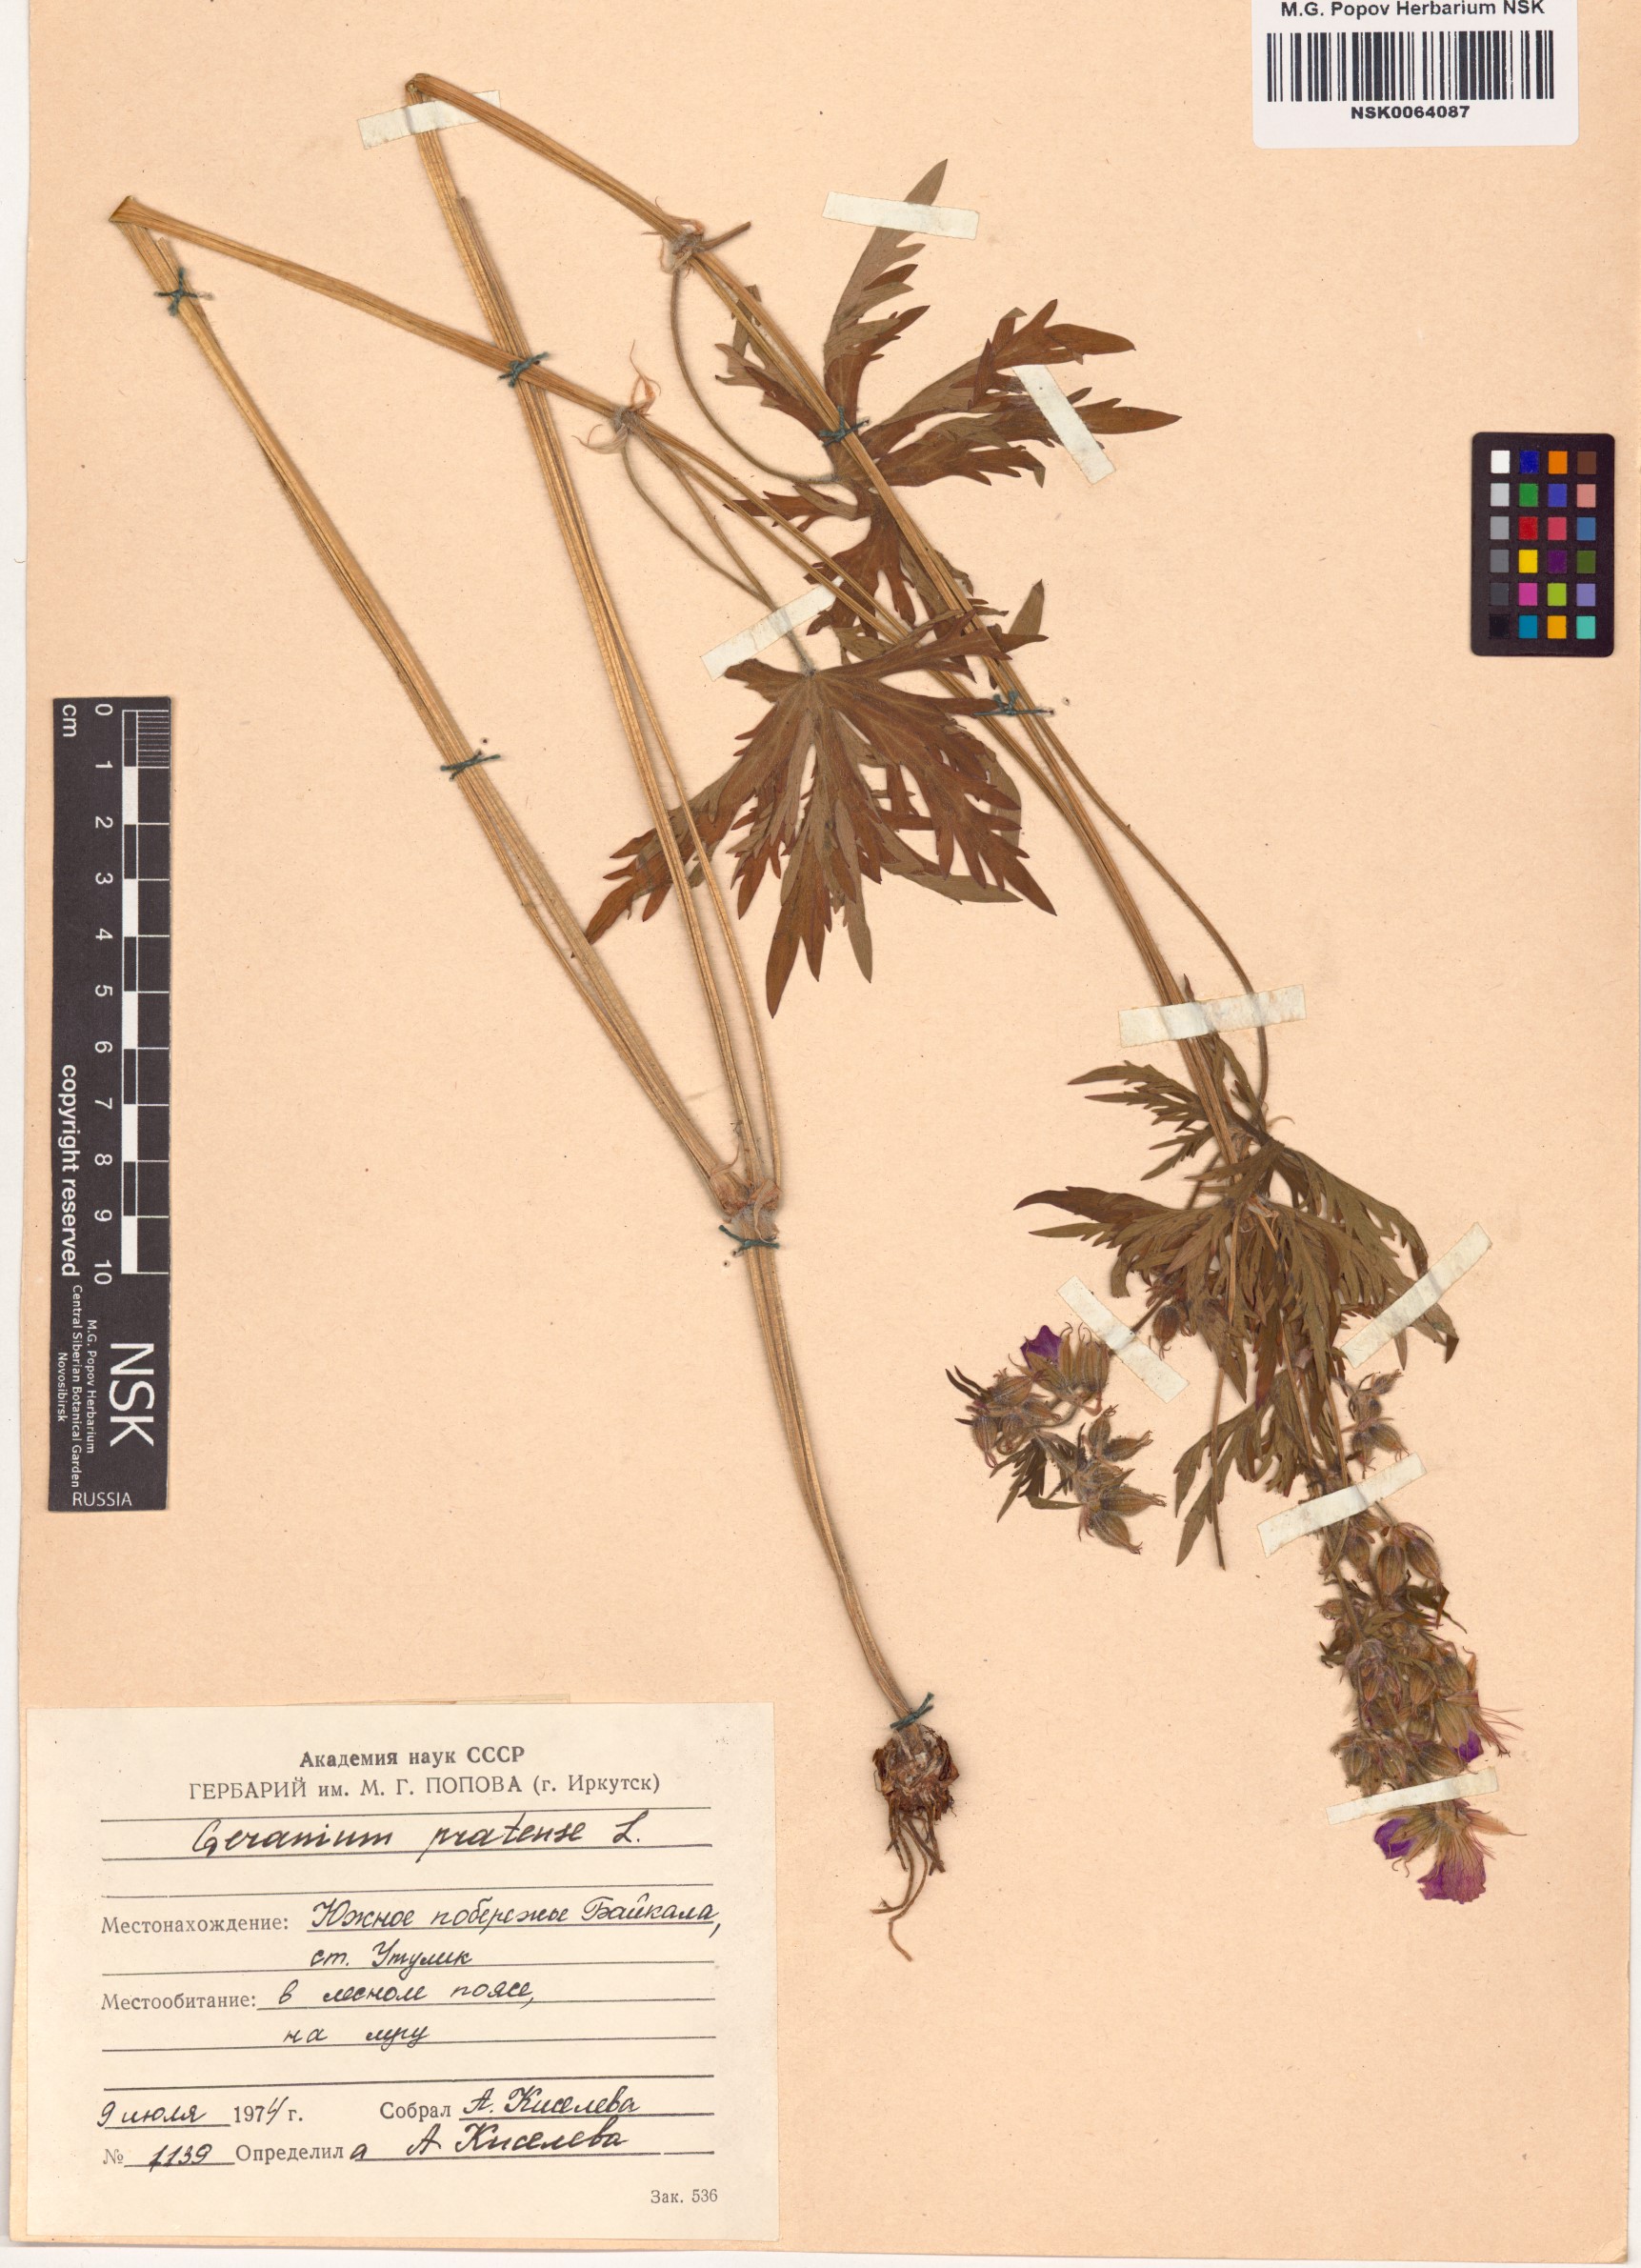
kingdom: Plantae
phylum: Tracheophyta
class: Magnoliopsida
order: Geraniales
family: Geraniaceae
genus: Geranium
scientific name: Geranium pratense
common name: Meadow crane's-bill
